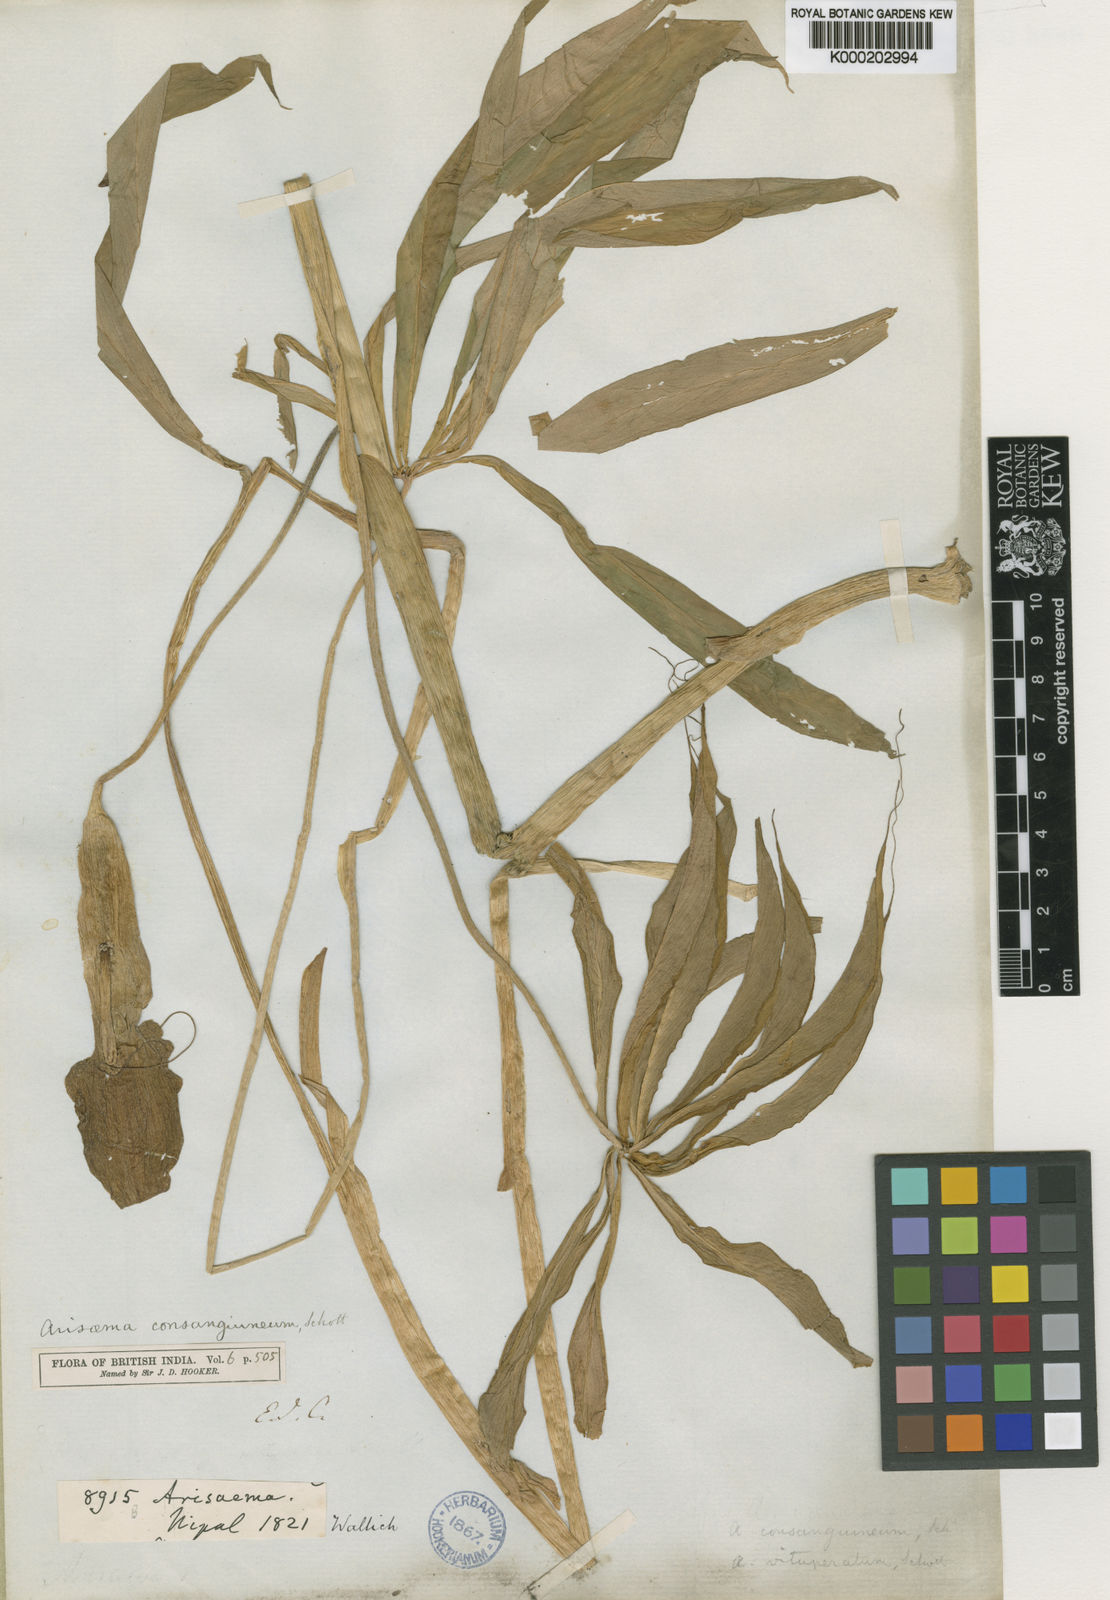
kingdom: Plantae
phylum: Tracheophyta
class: Liliopsida
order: Alismatales
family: Araceae
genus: Arisaema
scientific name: Arisaema erubescens
